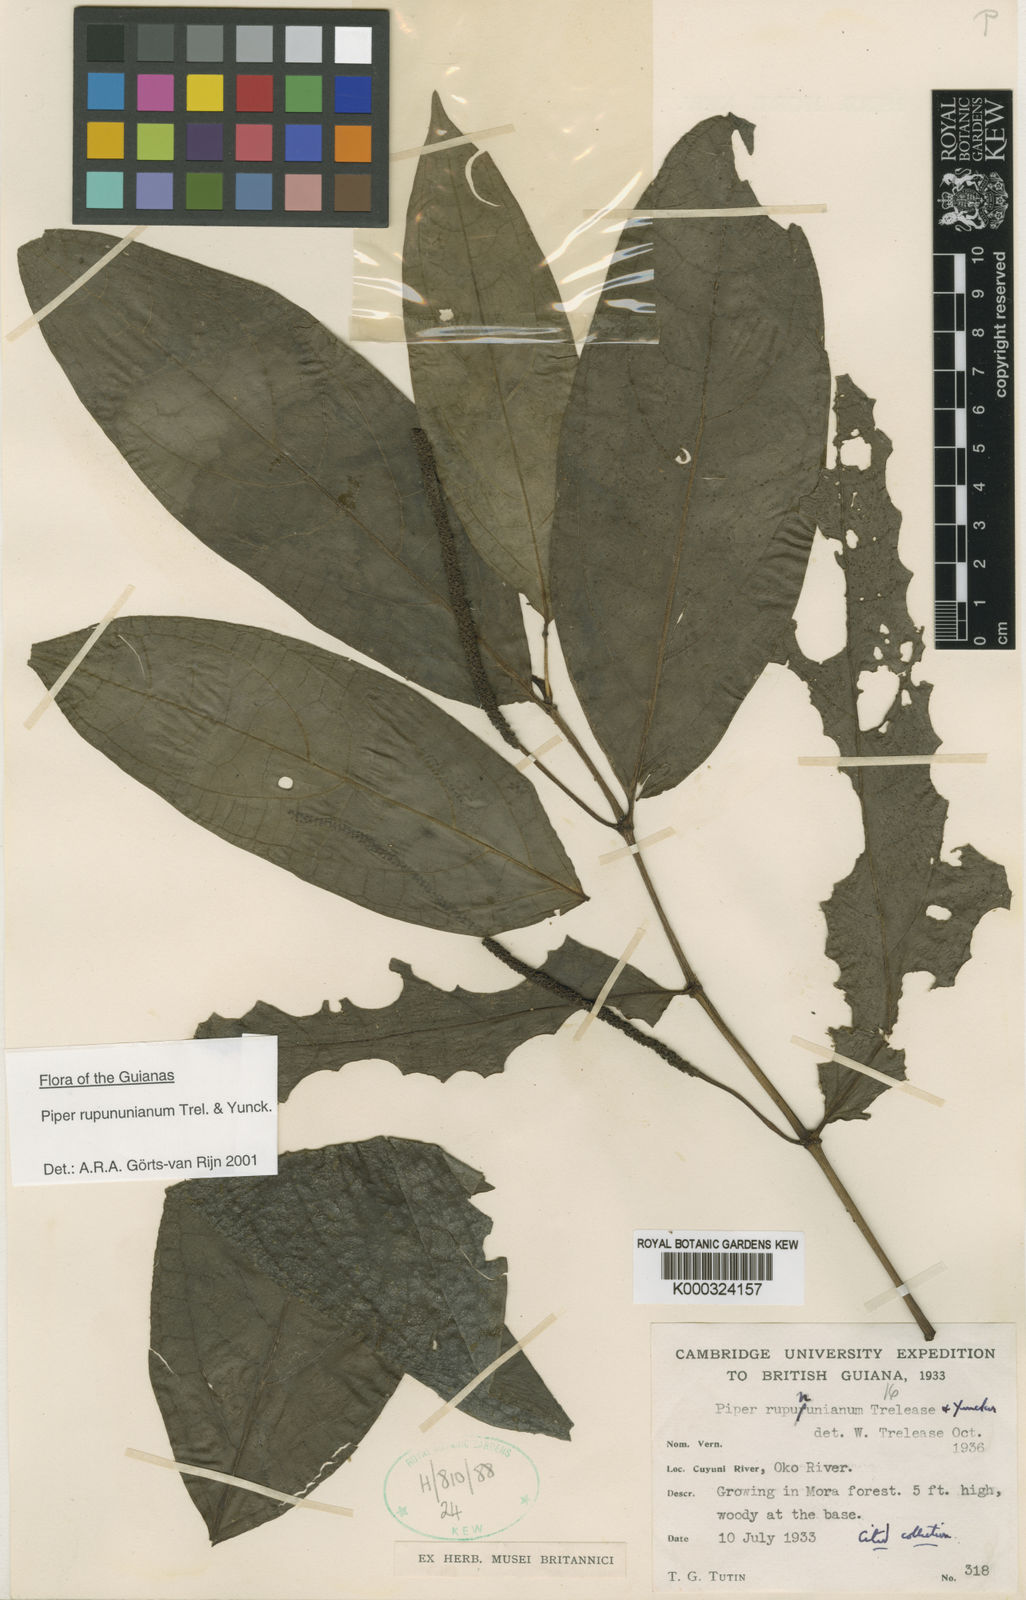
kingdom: Plantae
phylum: Tracheophyta
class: Magnoliopsida
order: Piperales
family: Piperaceae
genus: Piper
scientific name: Piper rupununianum
